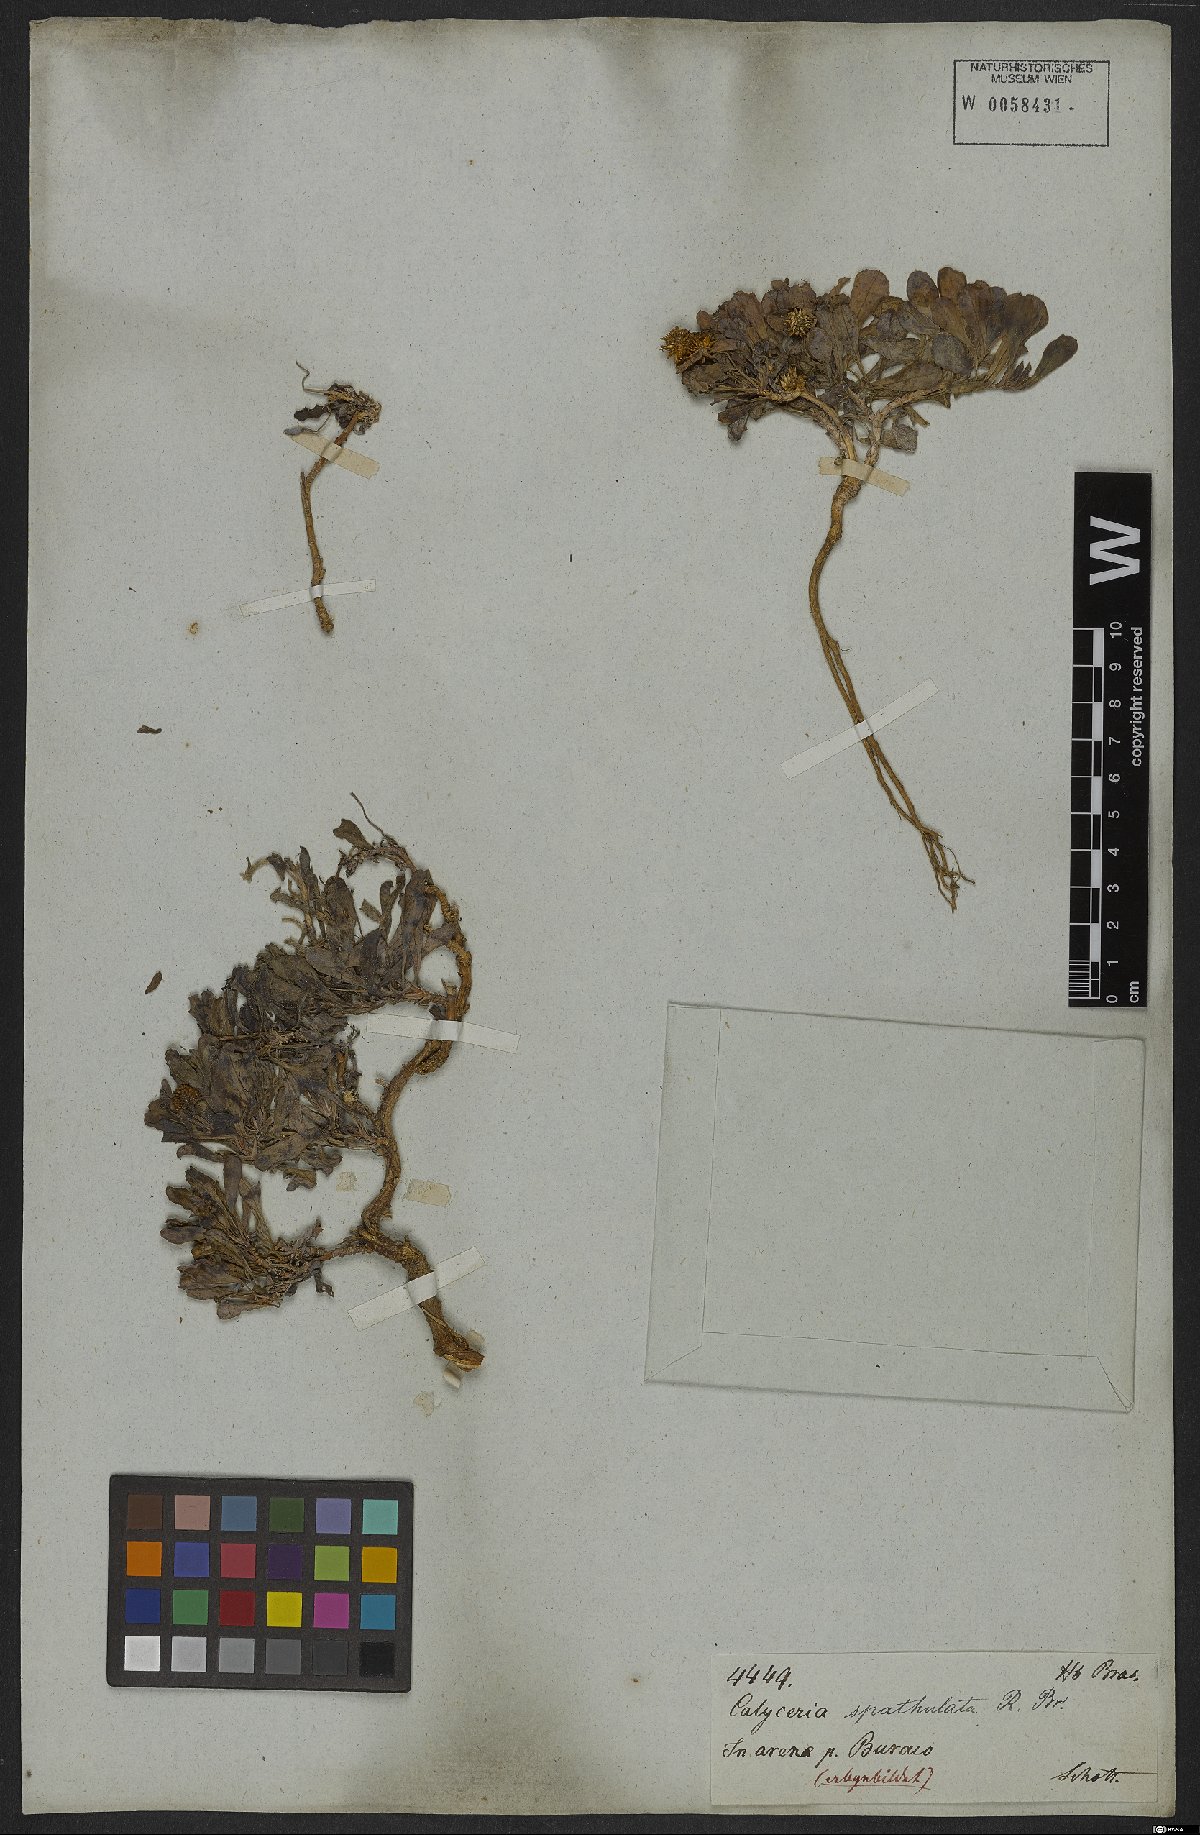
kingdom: Plantae
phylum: Tracheophyta
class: Magnoliopsida
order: Asterales
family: Calyceraceae
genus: Acicarpha
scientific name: Acicarpha spathulata
